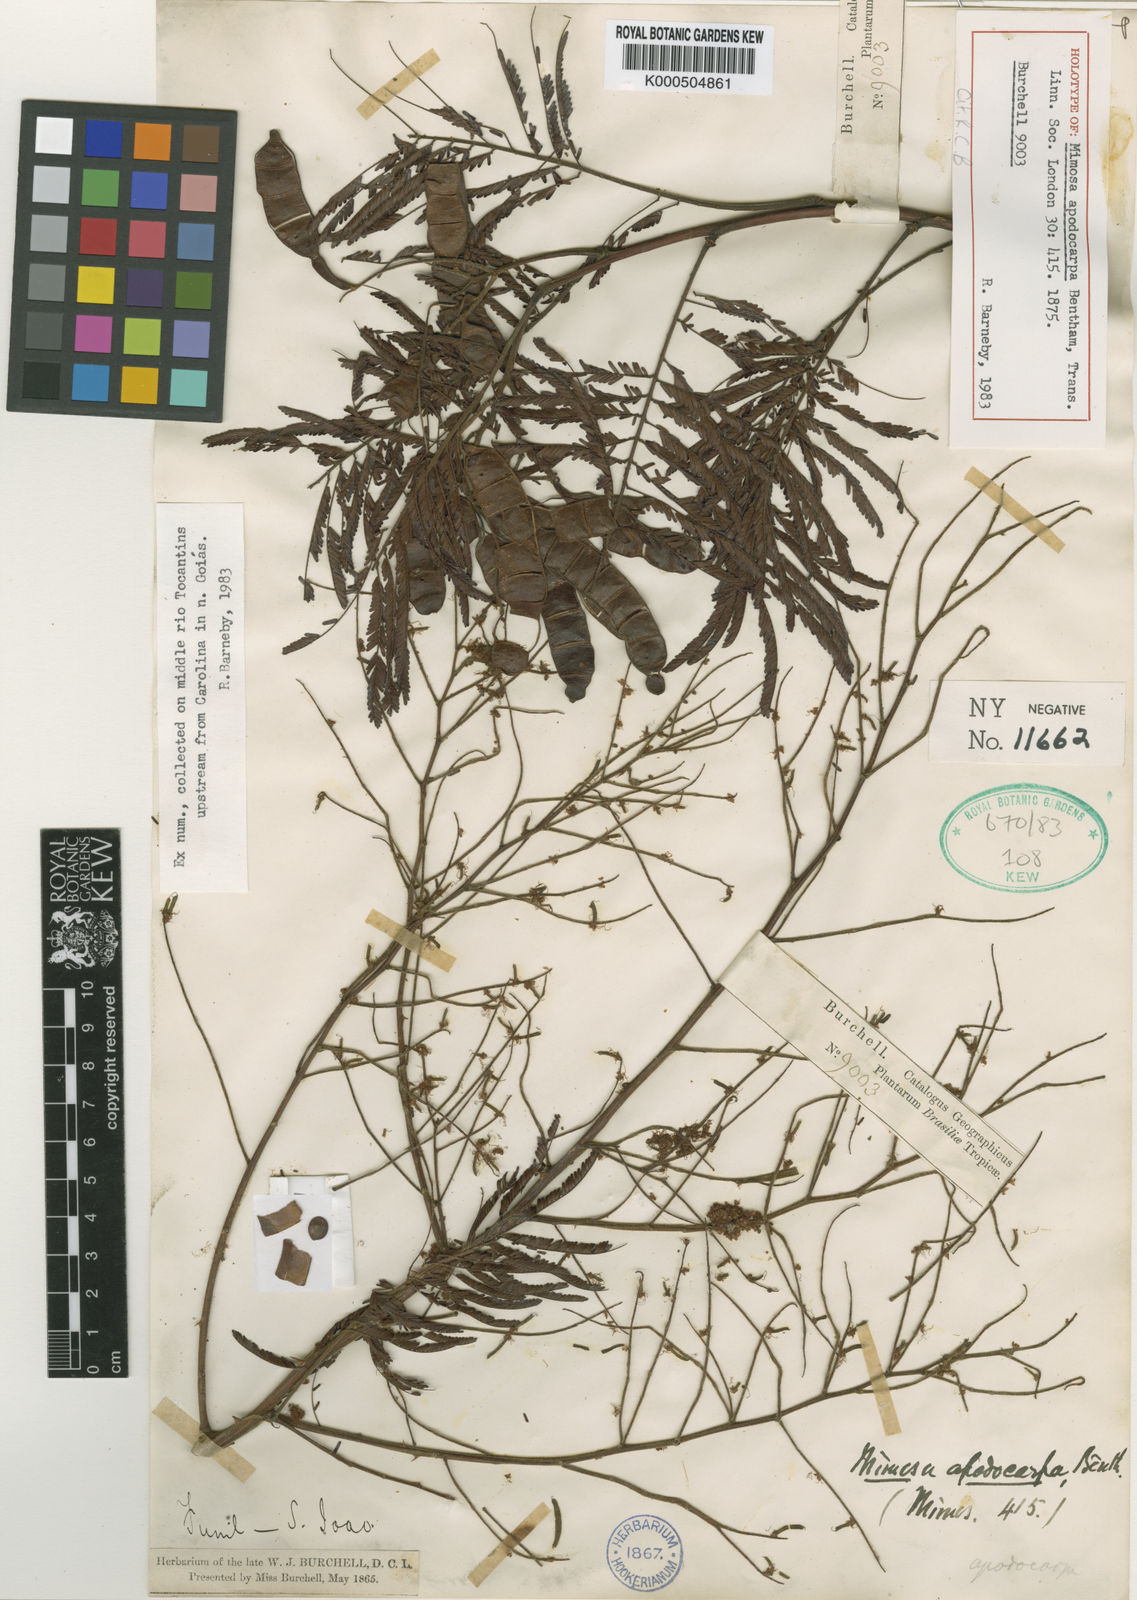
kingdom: Plantae
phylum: Tracheophyta
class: Magnoliopsida
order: Fabales
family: Fabaceae
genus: Mimosa
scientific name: Mimosa apodocarpa
